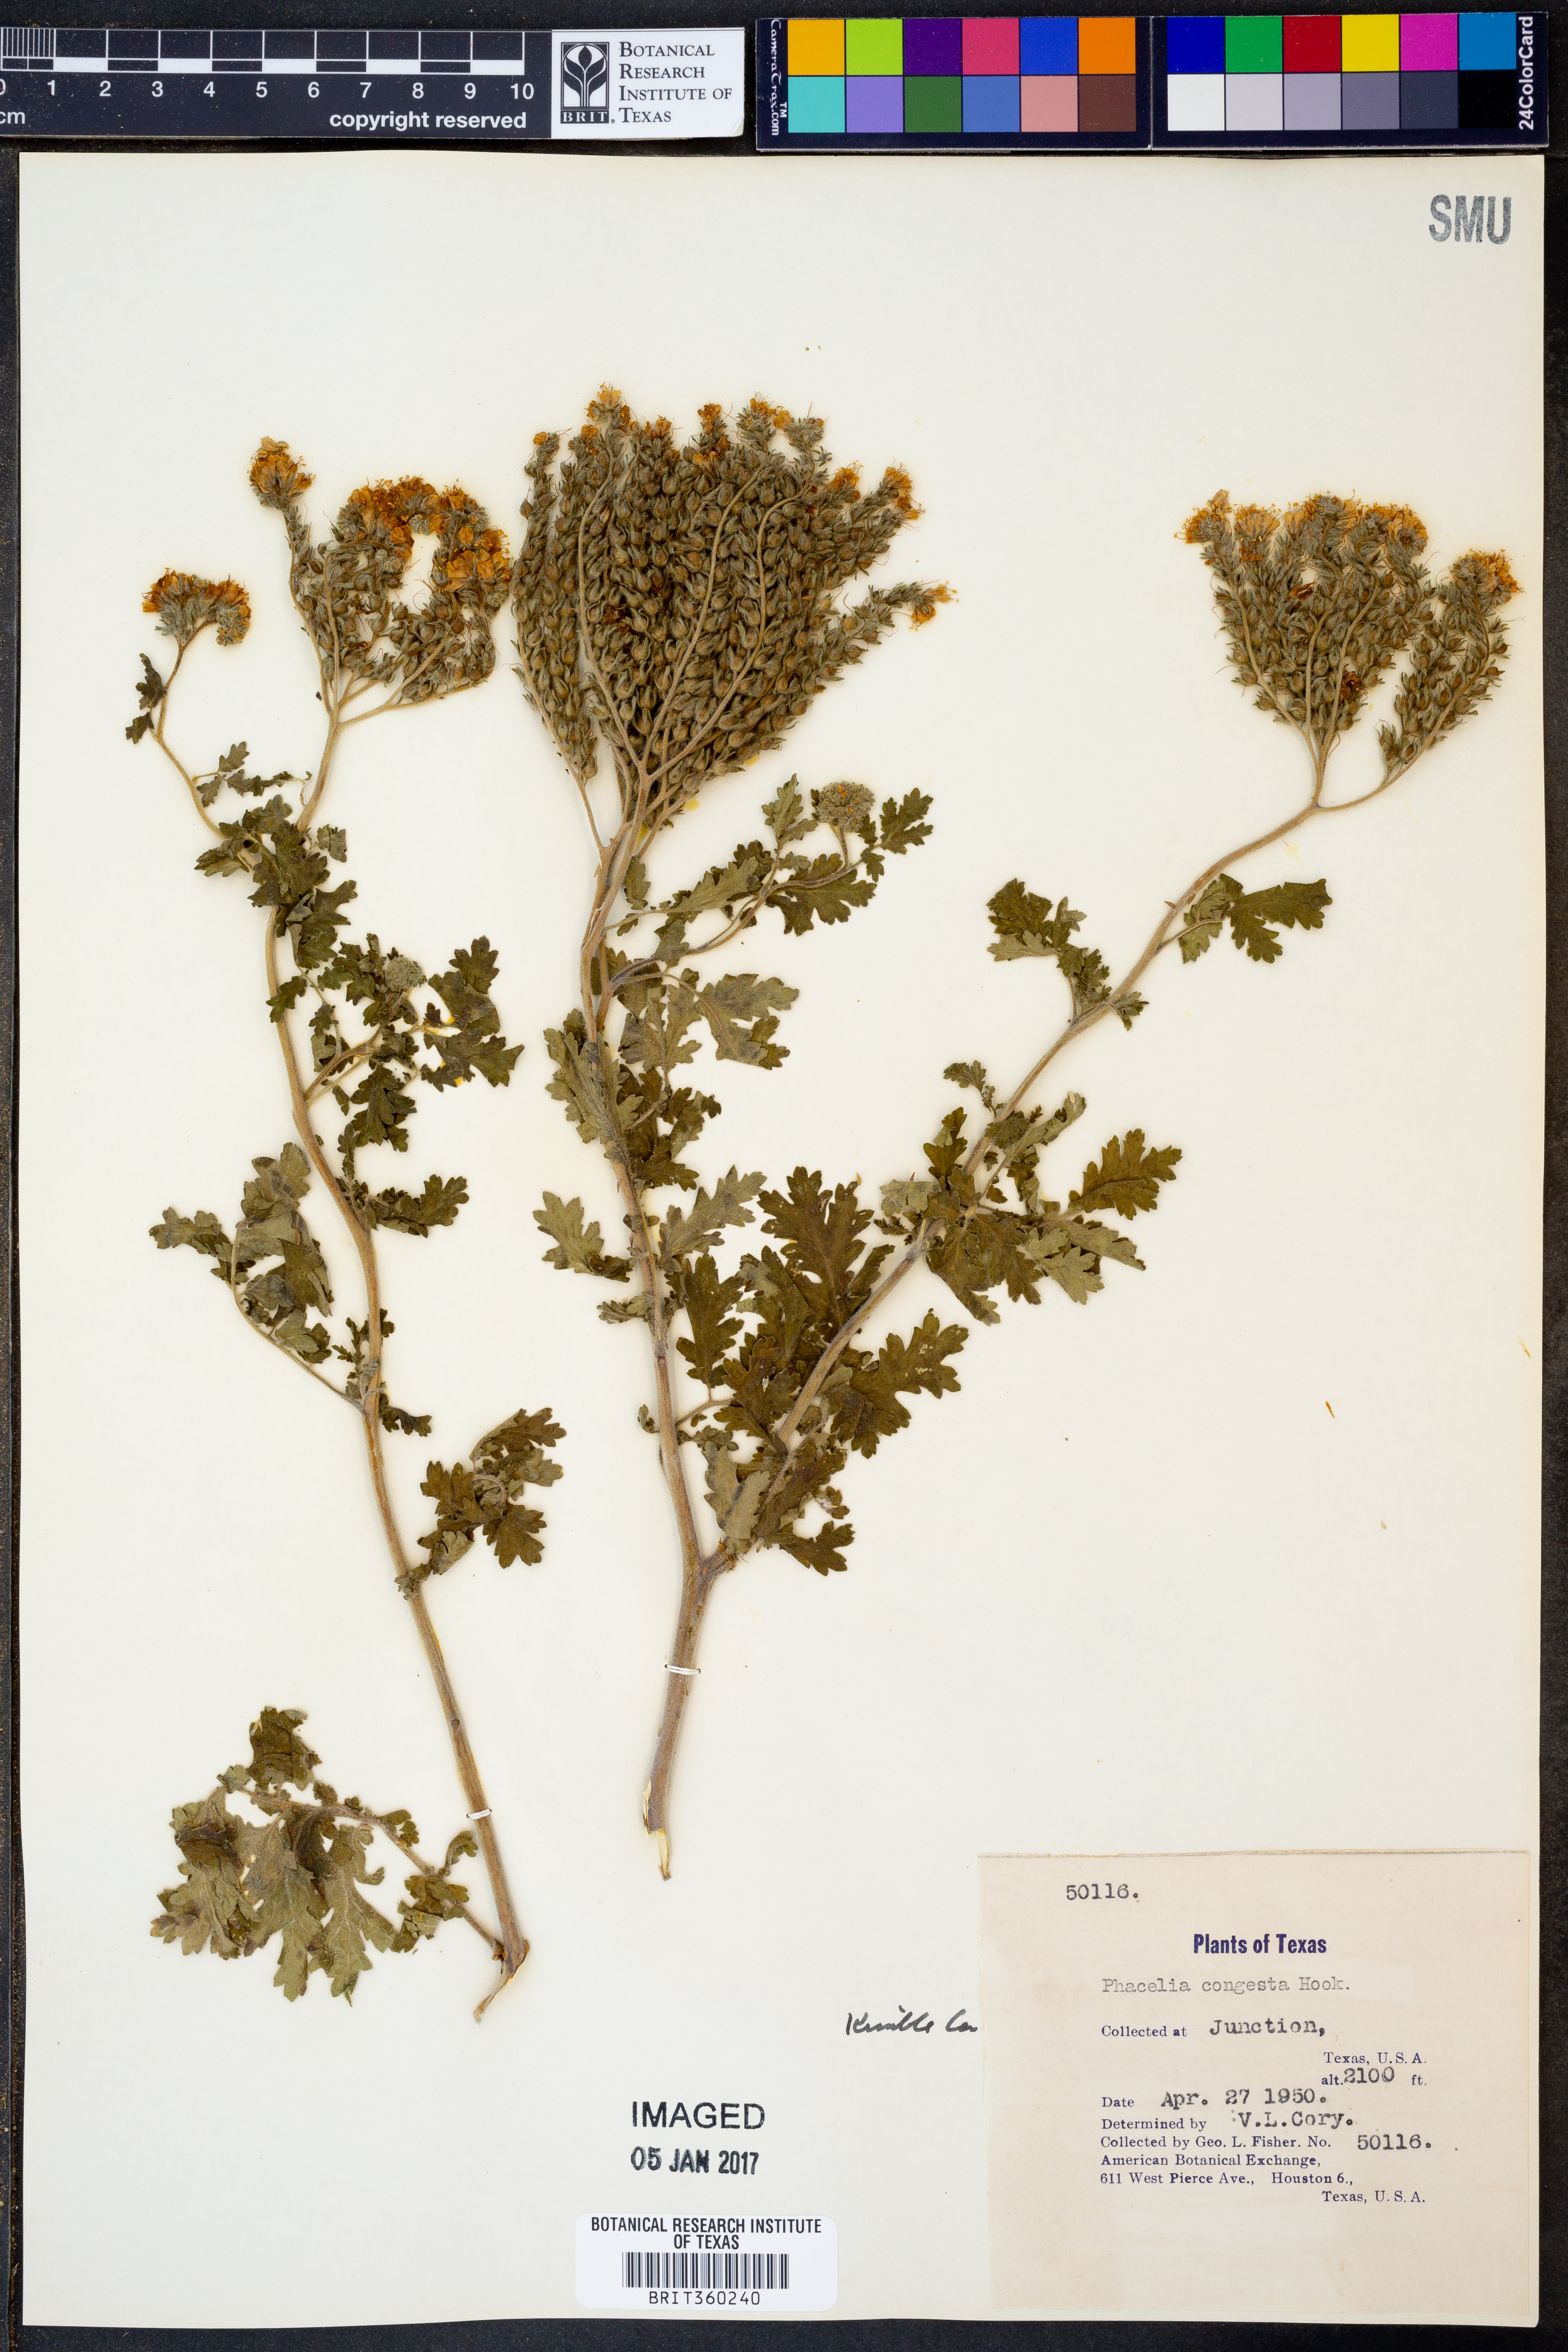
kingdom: Plantae
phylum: Tracheophyta
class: Magnoliopsida
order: Boraginales
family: Hydrophyllaceae
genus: Phacelia
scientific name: Phacelia congesta
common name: Blue curls
